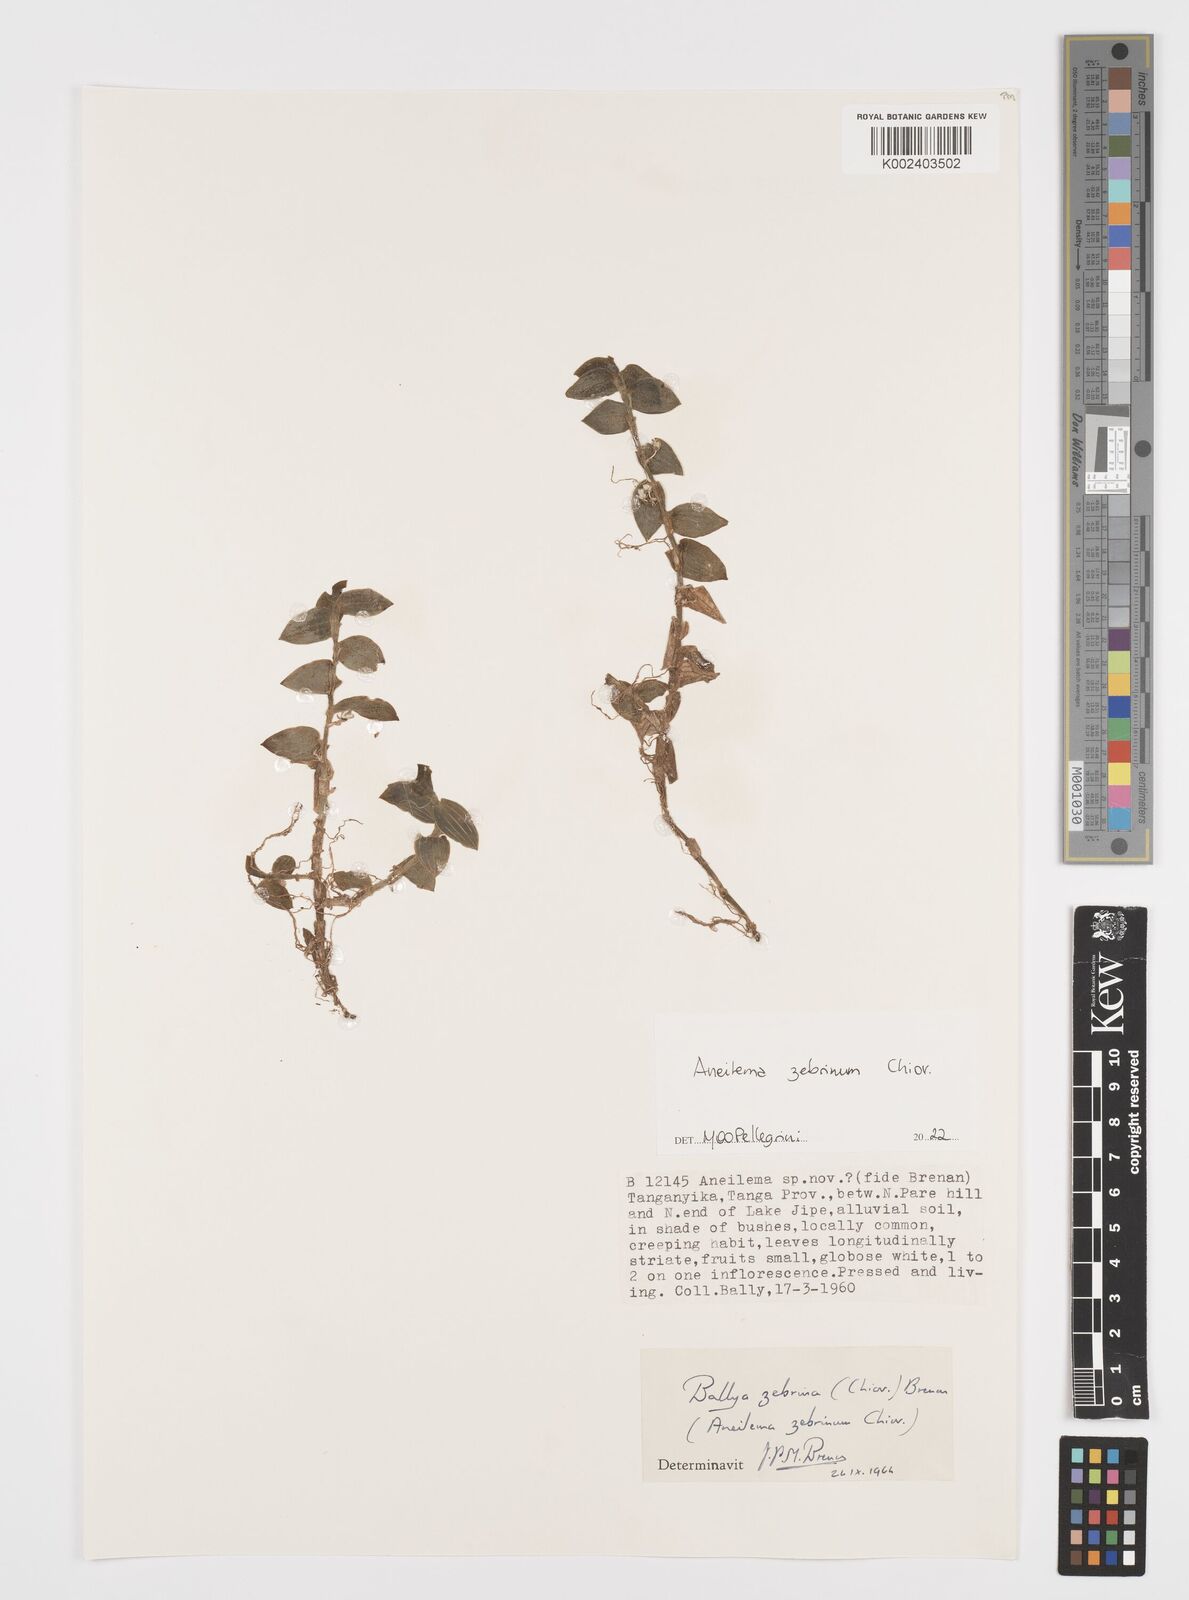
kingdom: Plantae
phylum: Tracheophyta
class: Liliopsida
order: Commelinales
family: Commelinaceae
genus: Aneilema
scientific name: Aneilema zebrinum
